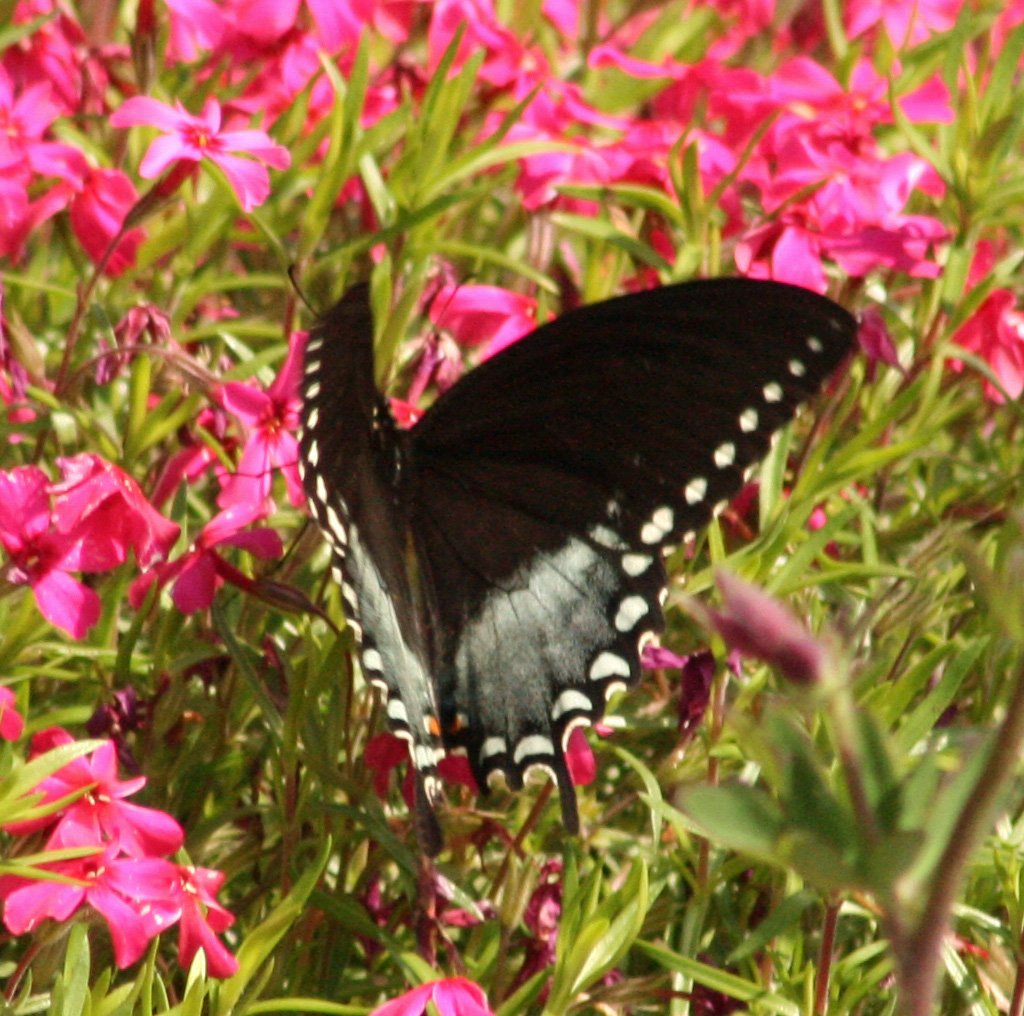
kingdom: Animalia
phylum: Arthropoda
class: Insecta
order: Lepidoptera
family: Papilionidae
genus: Pterourus
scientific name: Pterourus troilus
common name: Spicebush Swallowtail
